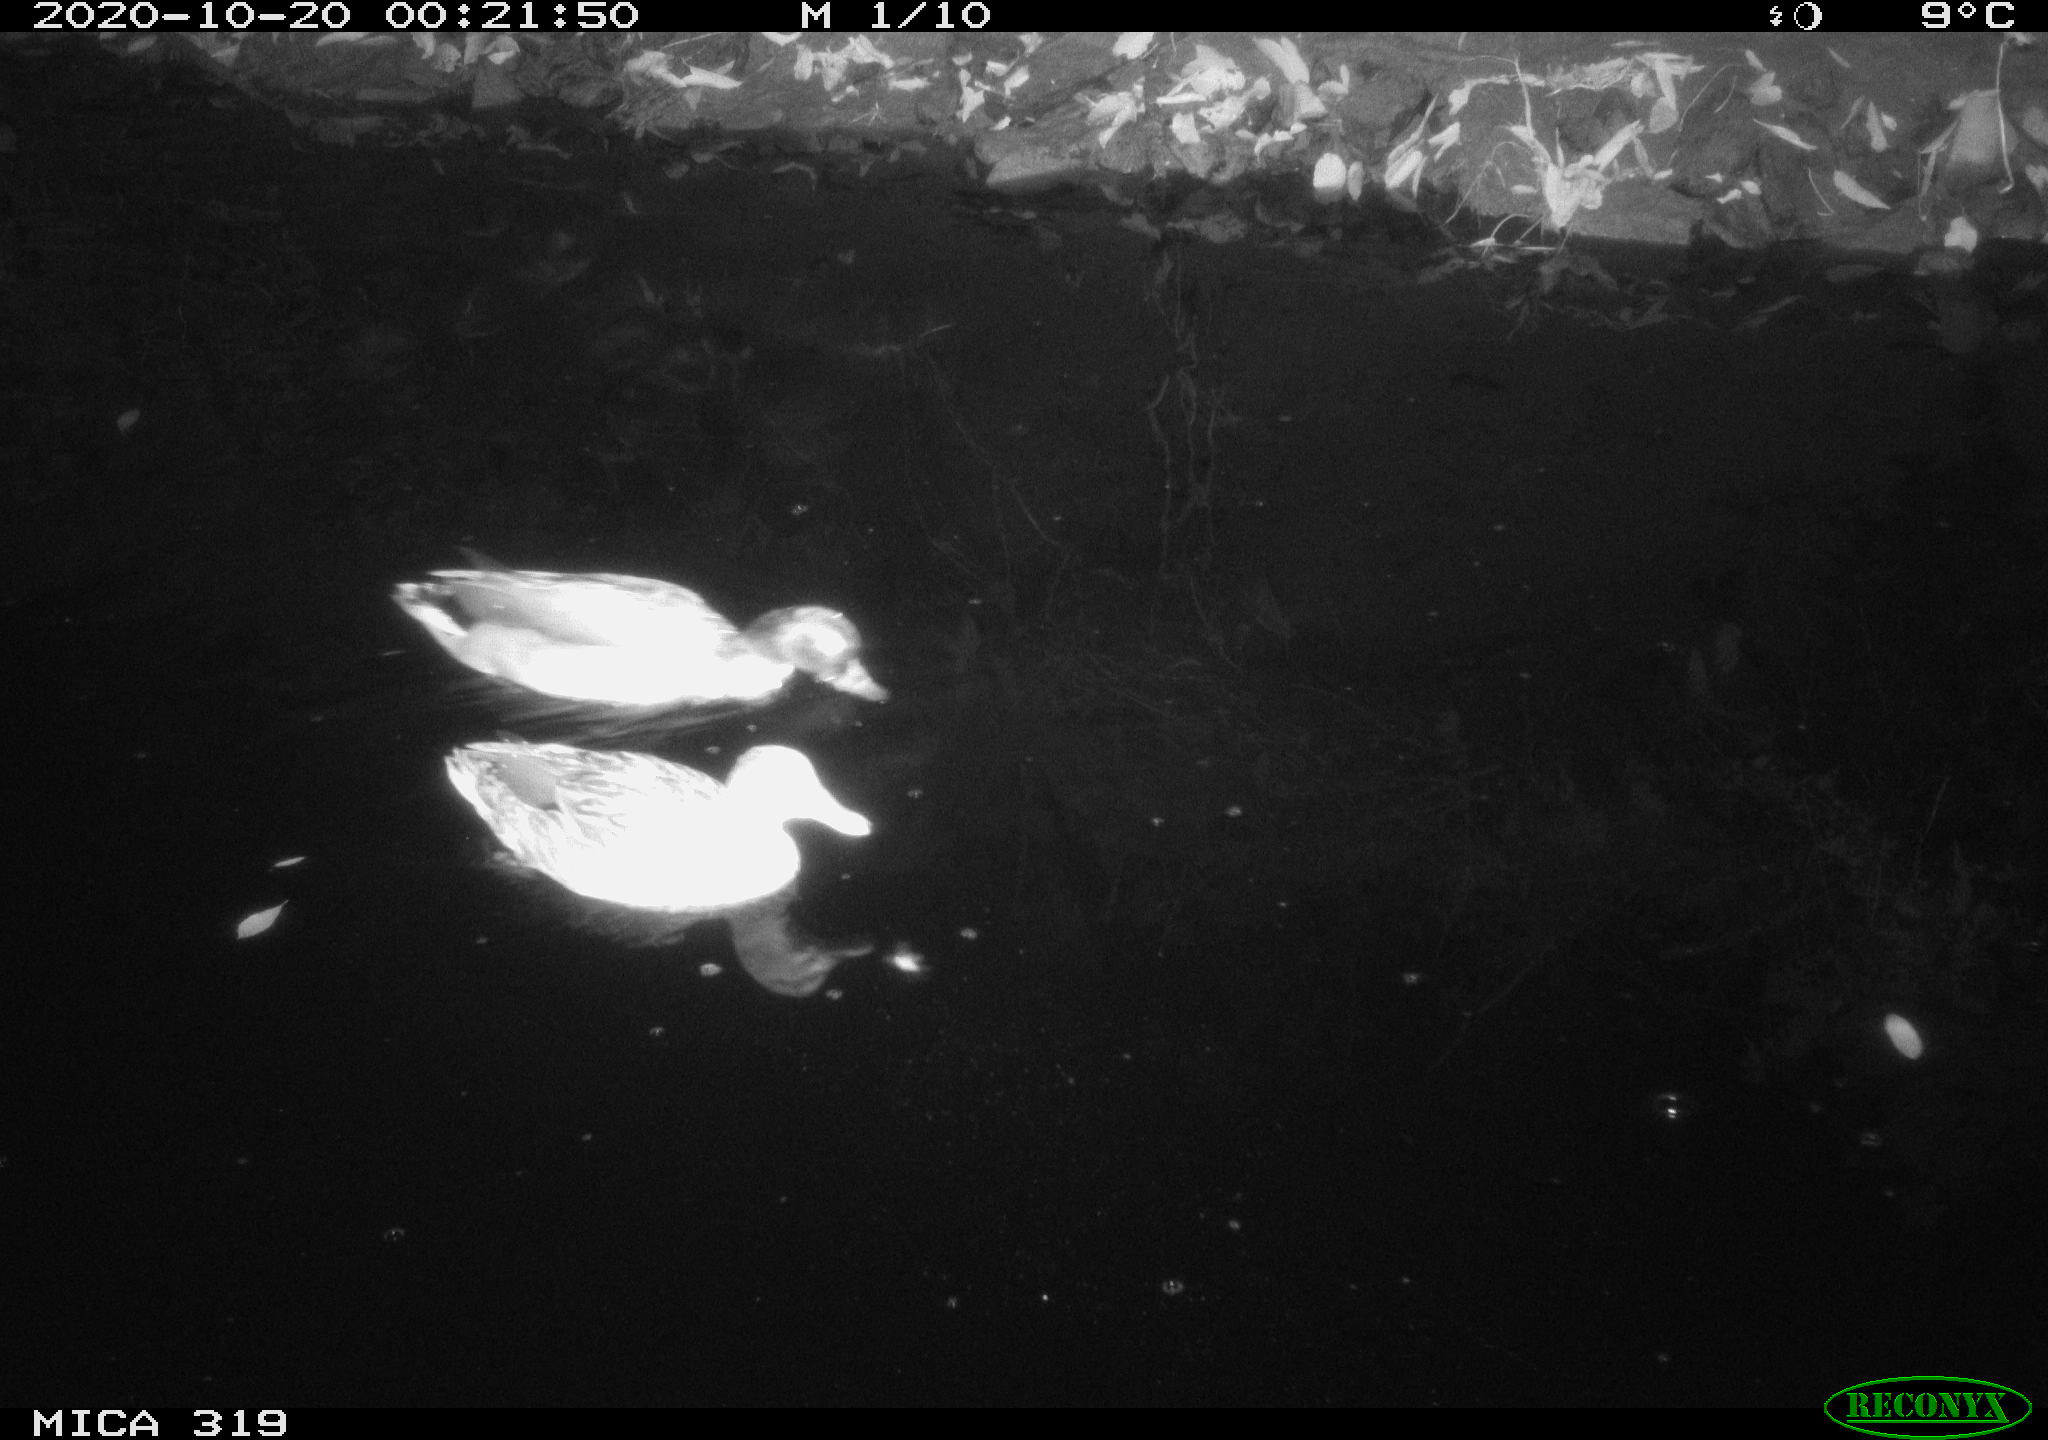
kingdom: Animalia
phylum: Chordata
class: Aves
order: Anseriformes
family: Anatidae
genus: Anas
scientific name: Anas platyrhynchos
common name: Mallard
